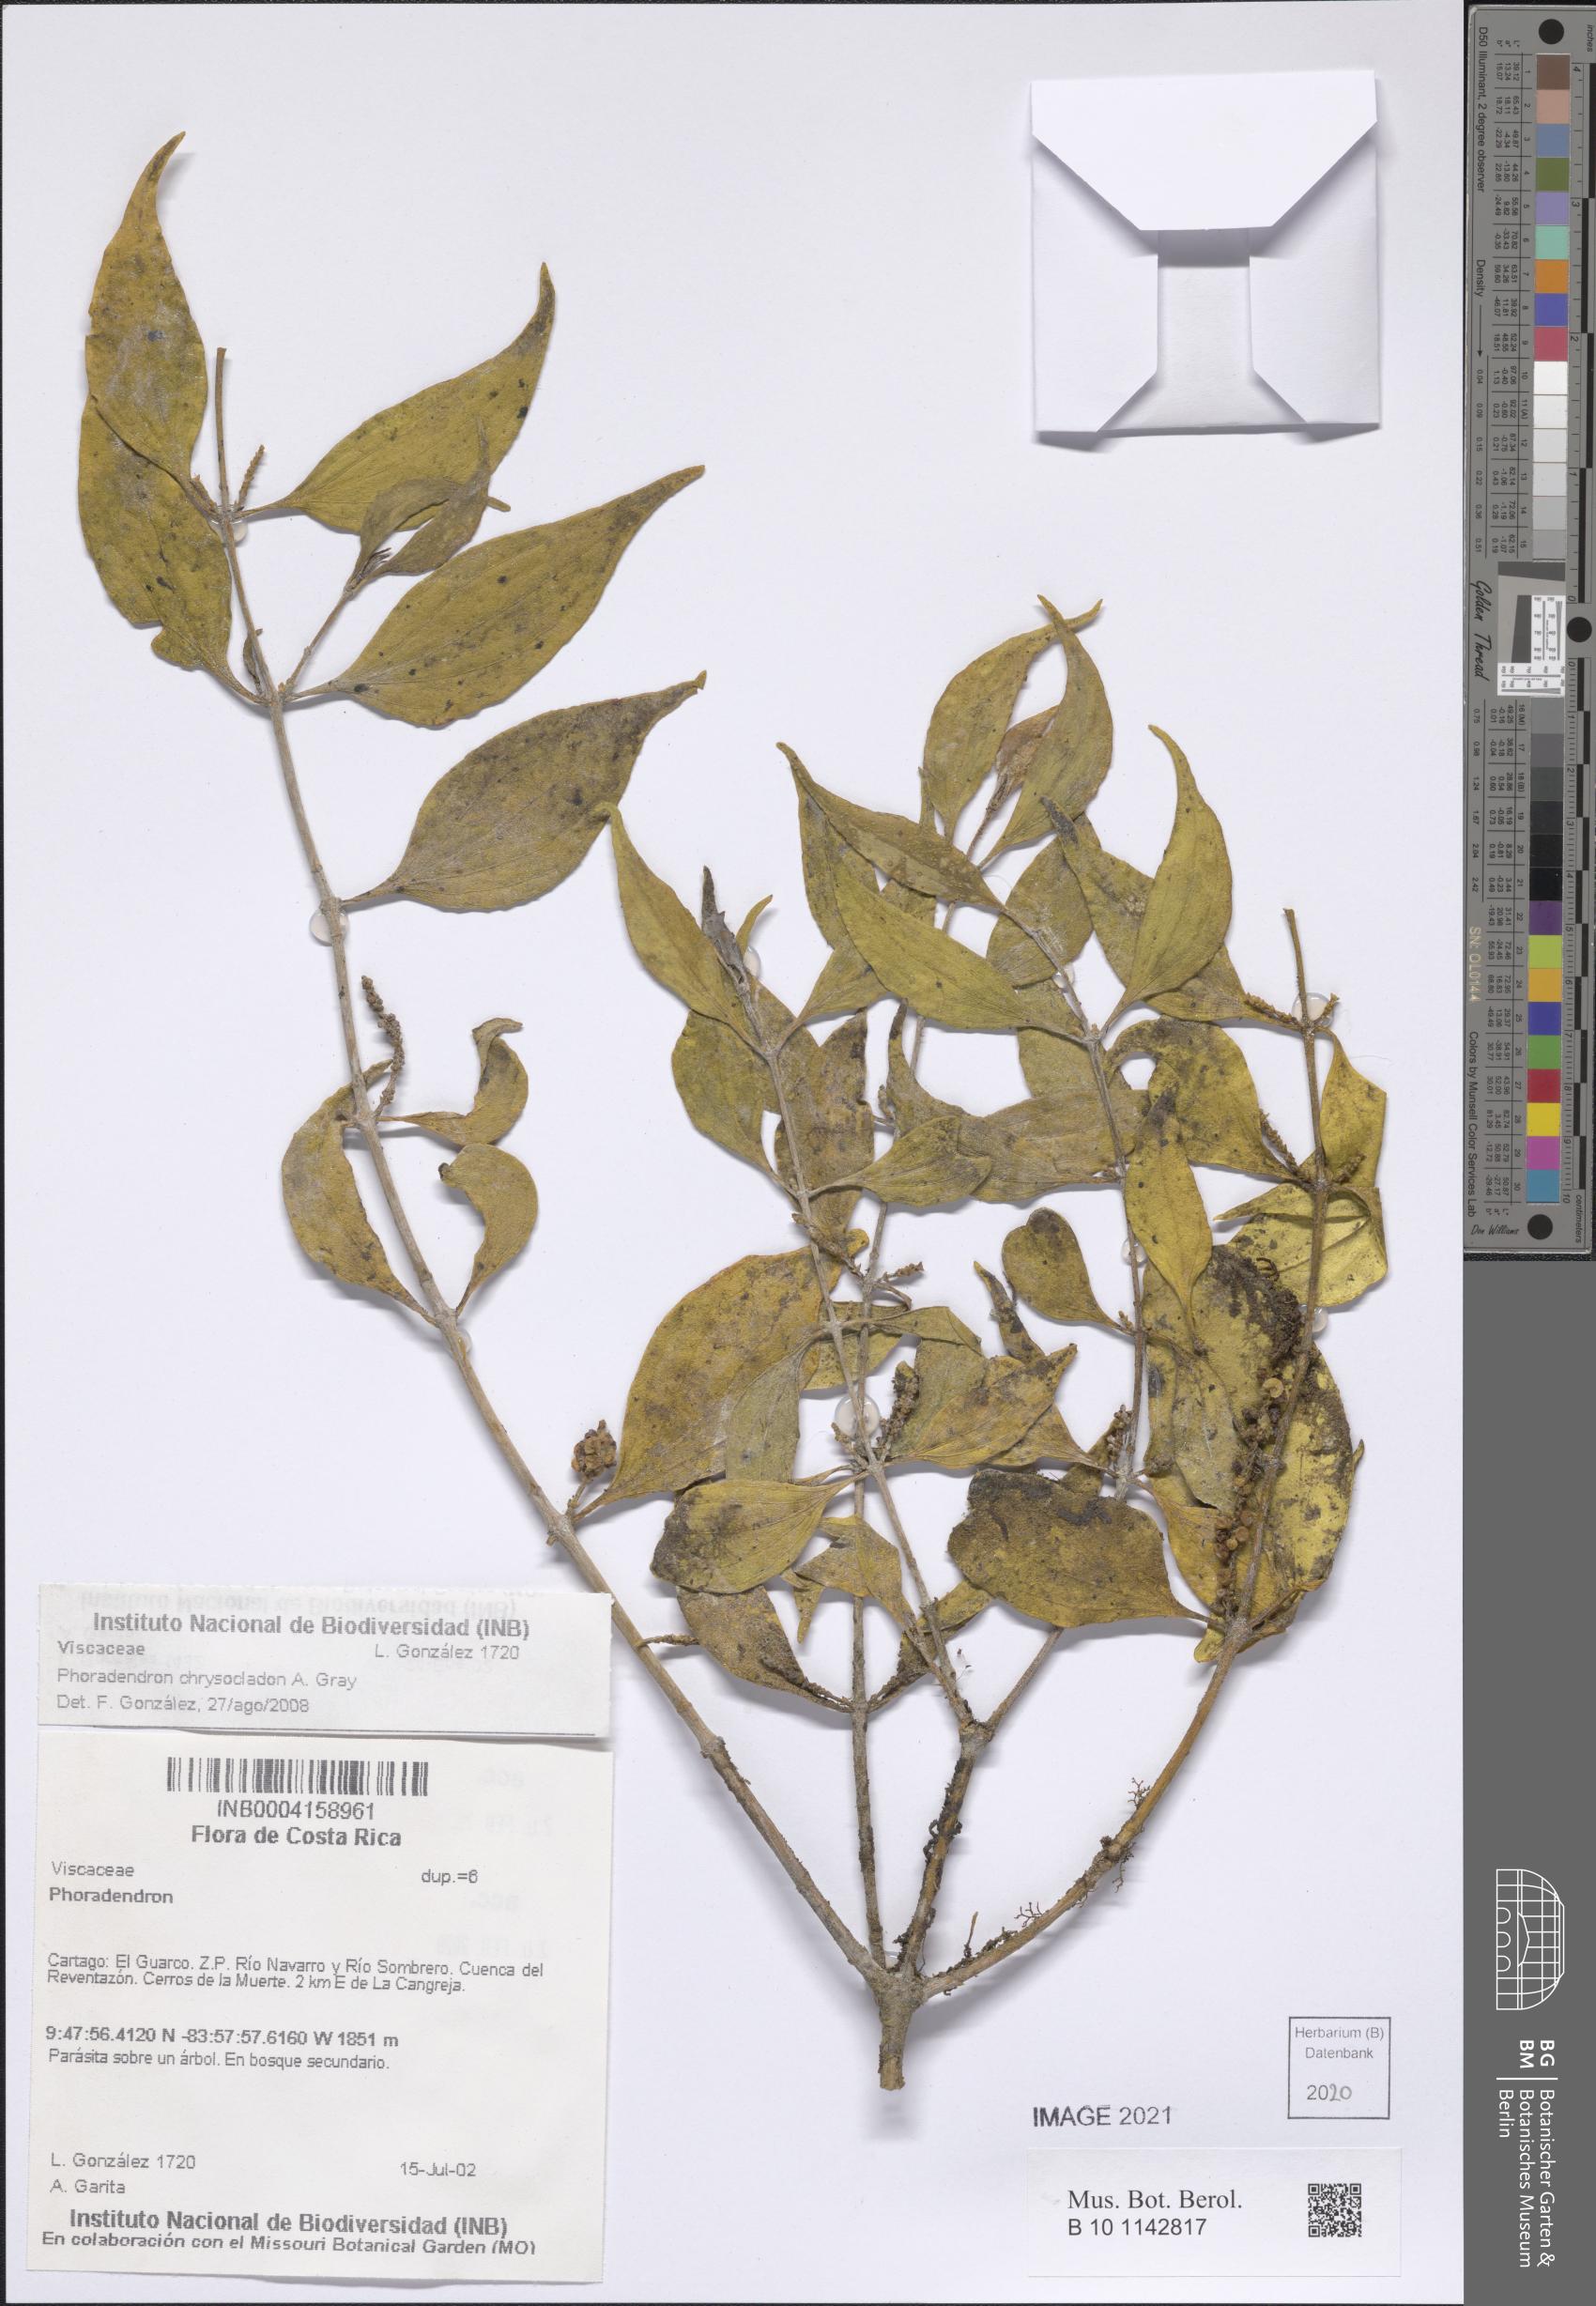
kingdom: Plantae
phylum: Tracheophyta
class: Magnoliopsida
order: Santalales
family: Viscaceae
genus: Phoradendron
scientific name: Phoradendron chrysocladon
